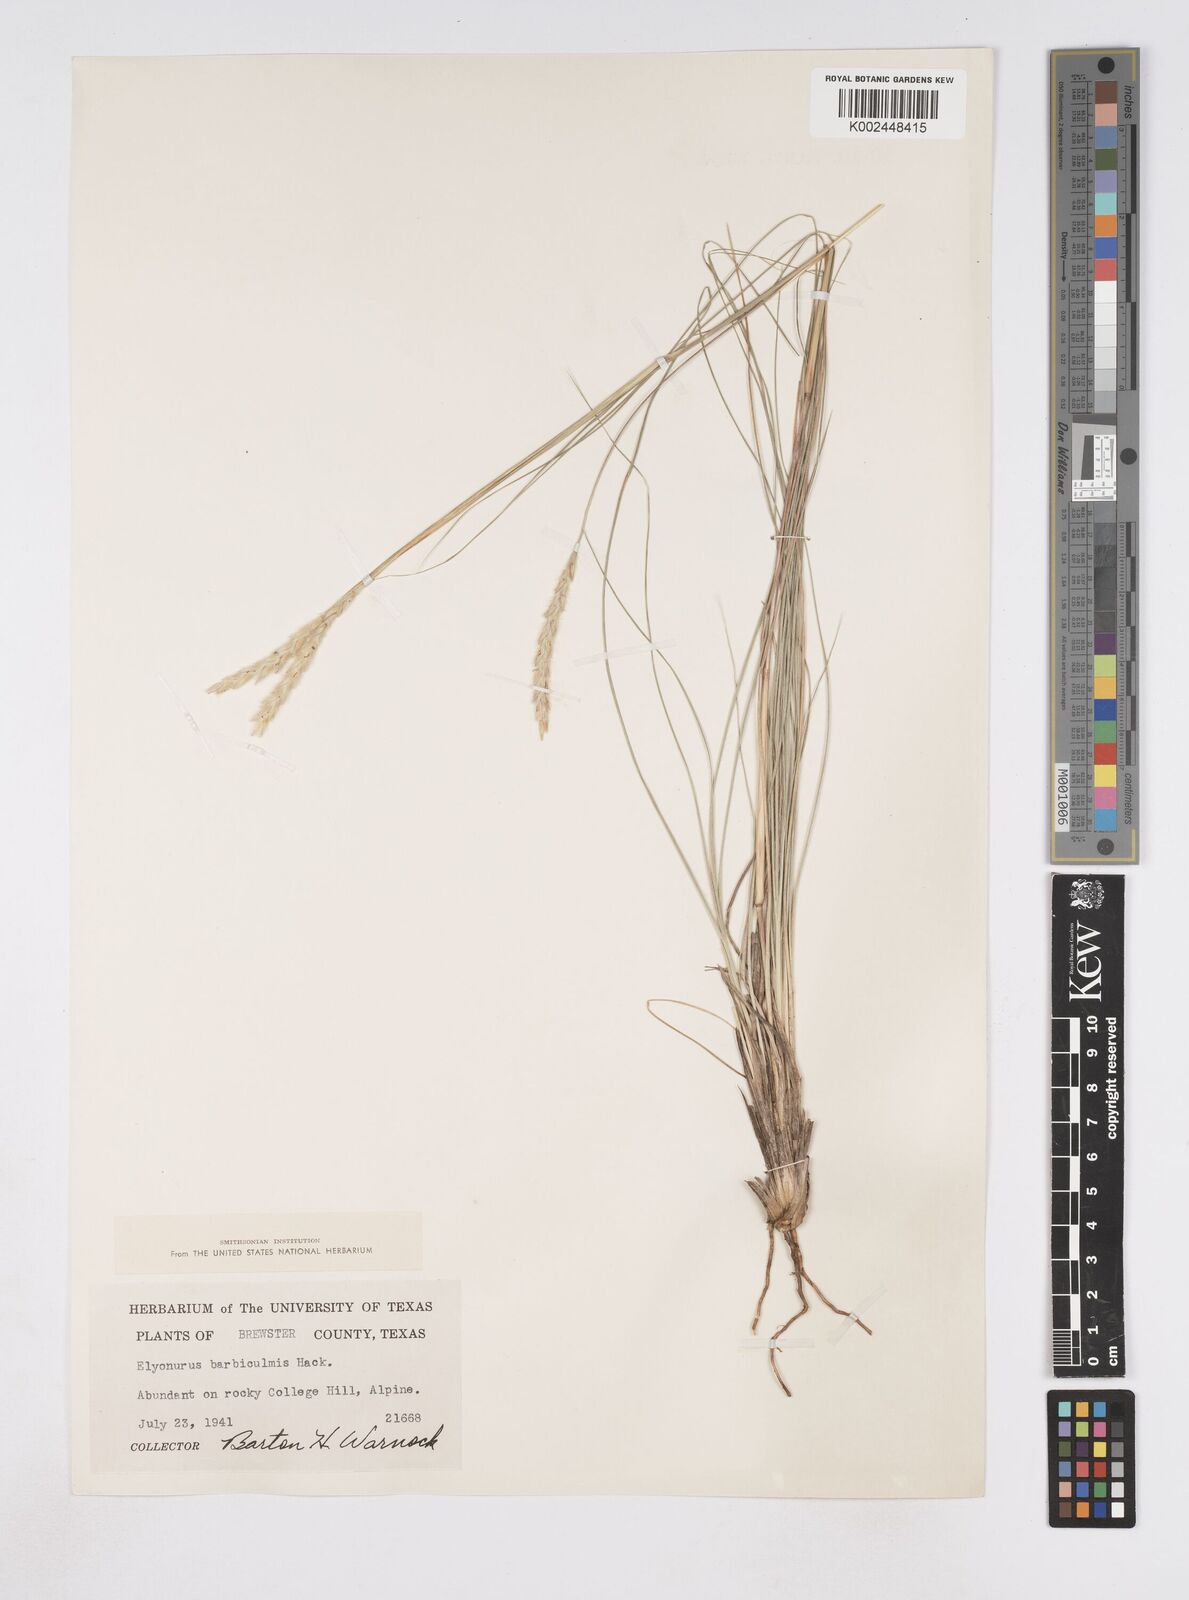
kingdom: Plantae
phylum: Tracheophyta
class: Liliopsida
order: Poales
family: Poaceae
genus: Elionurus
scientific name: Elionurus barbiculmis
